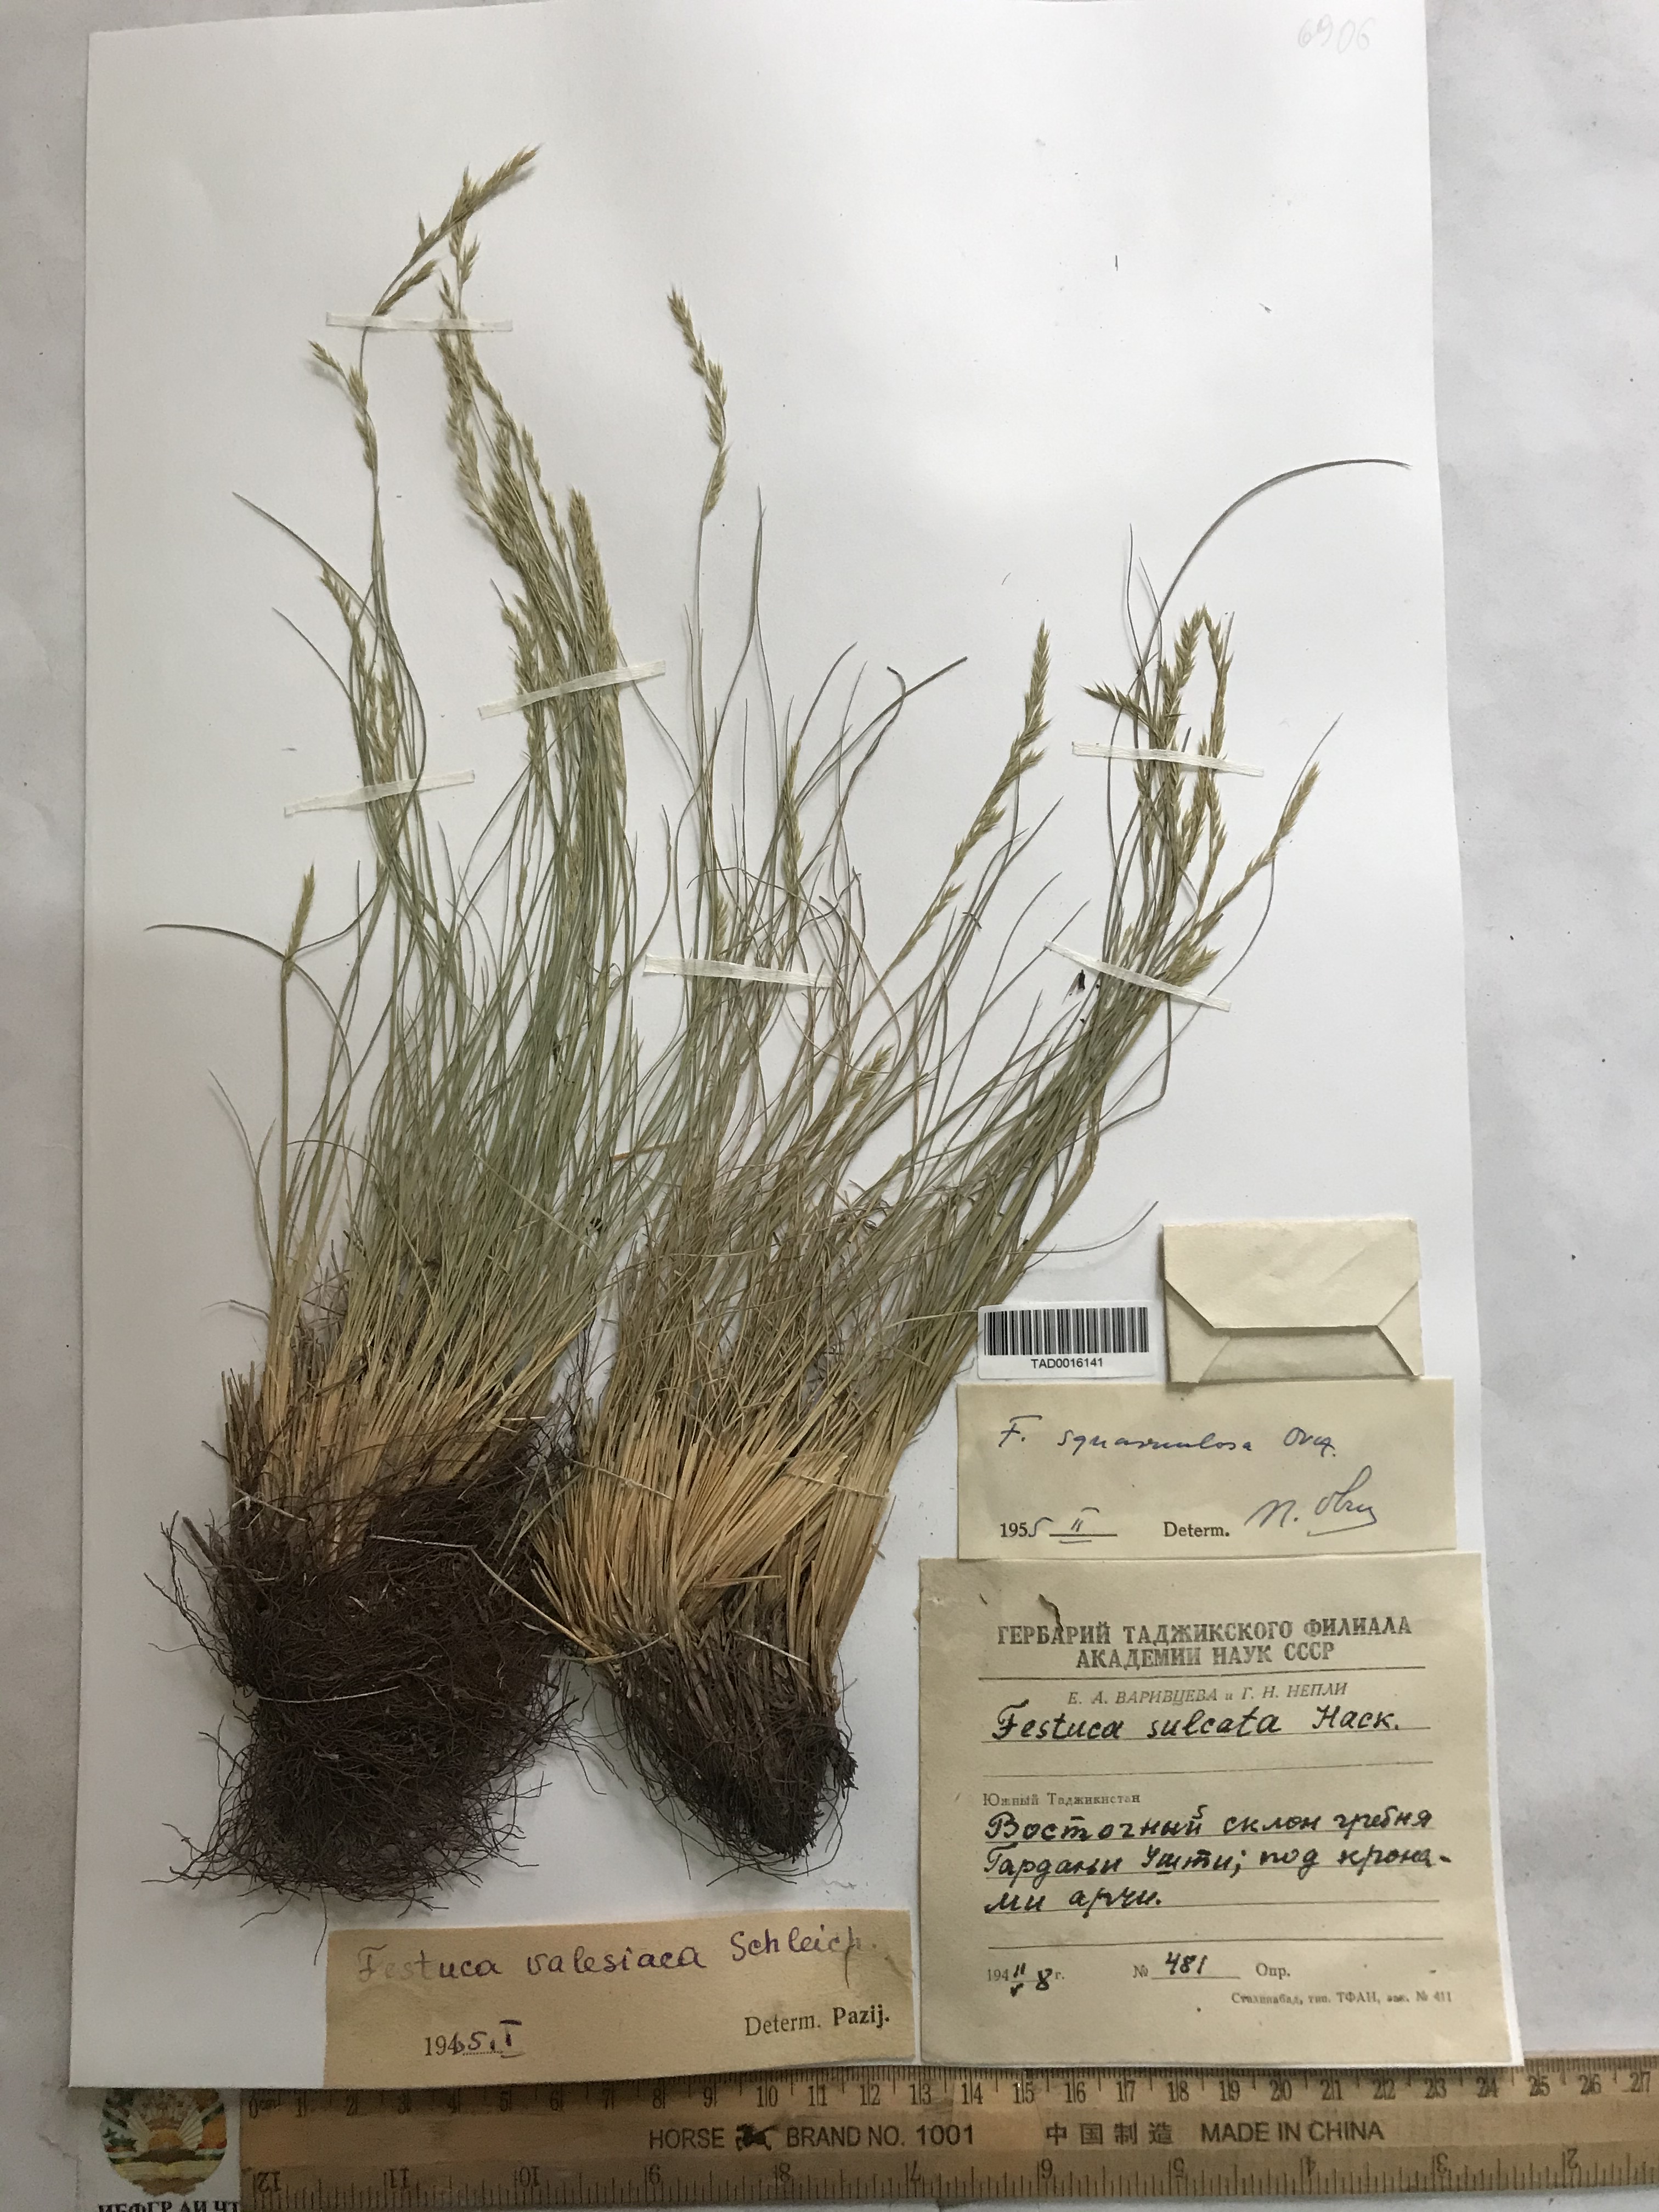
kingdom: Plantae
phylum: Tracheophyta
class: Liliopsida
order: Poales
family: Poaceae
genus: Festuca
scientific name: Festuca sulcata
